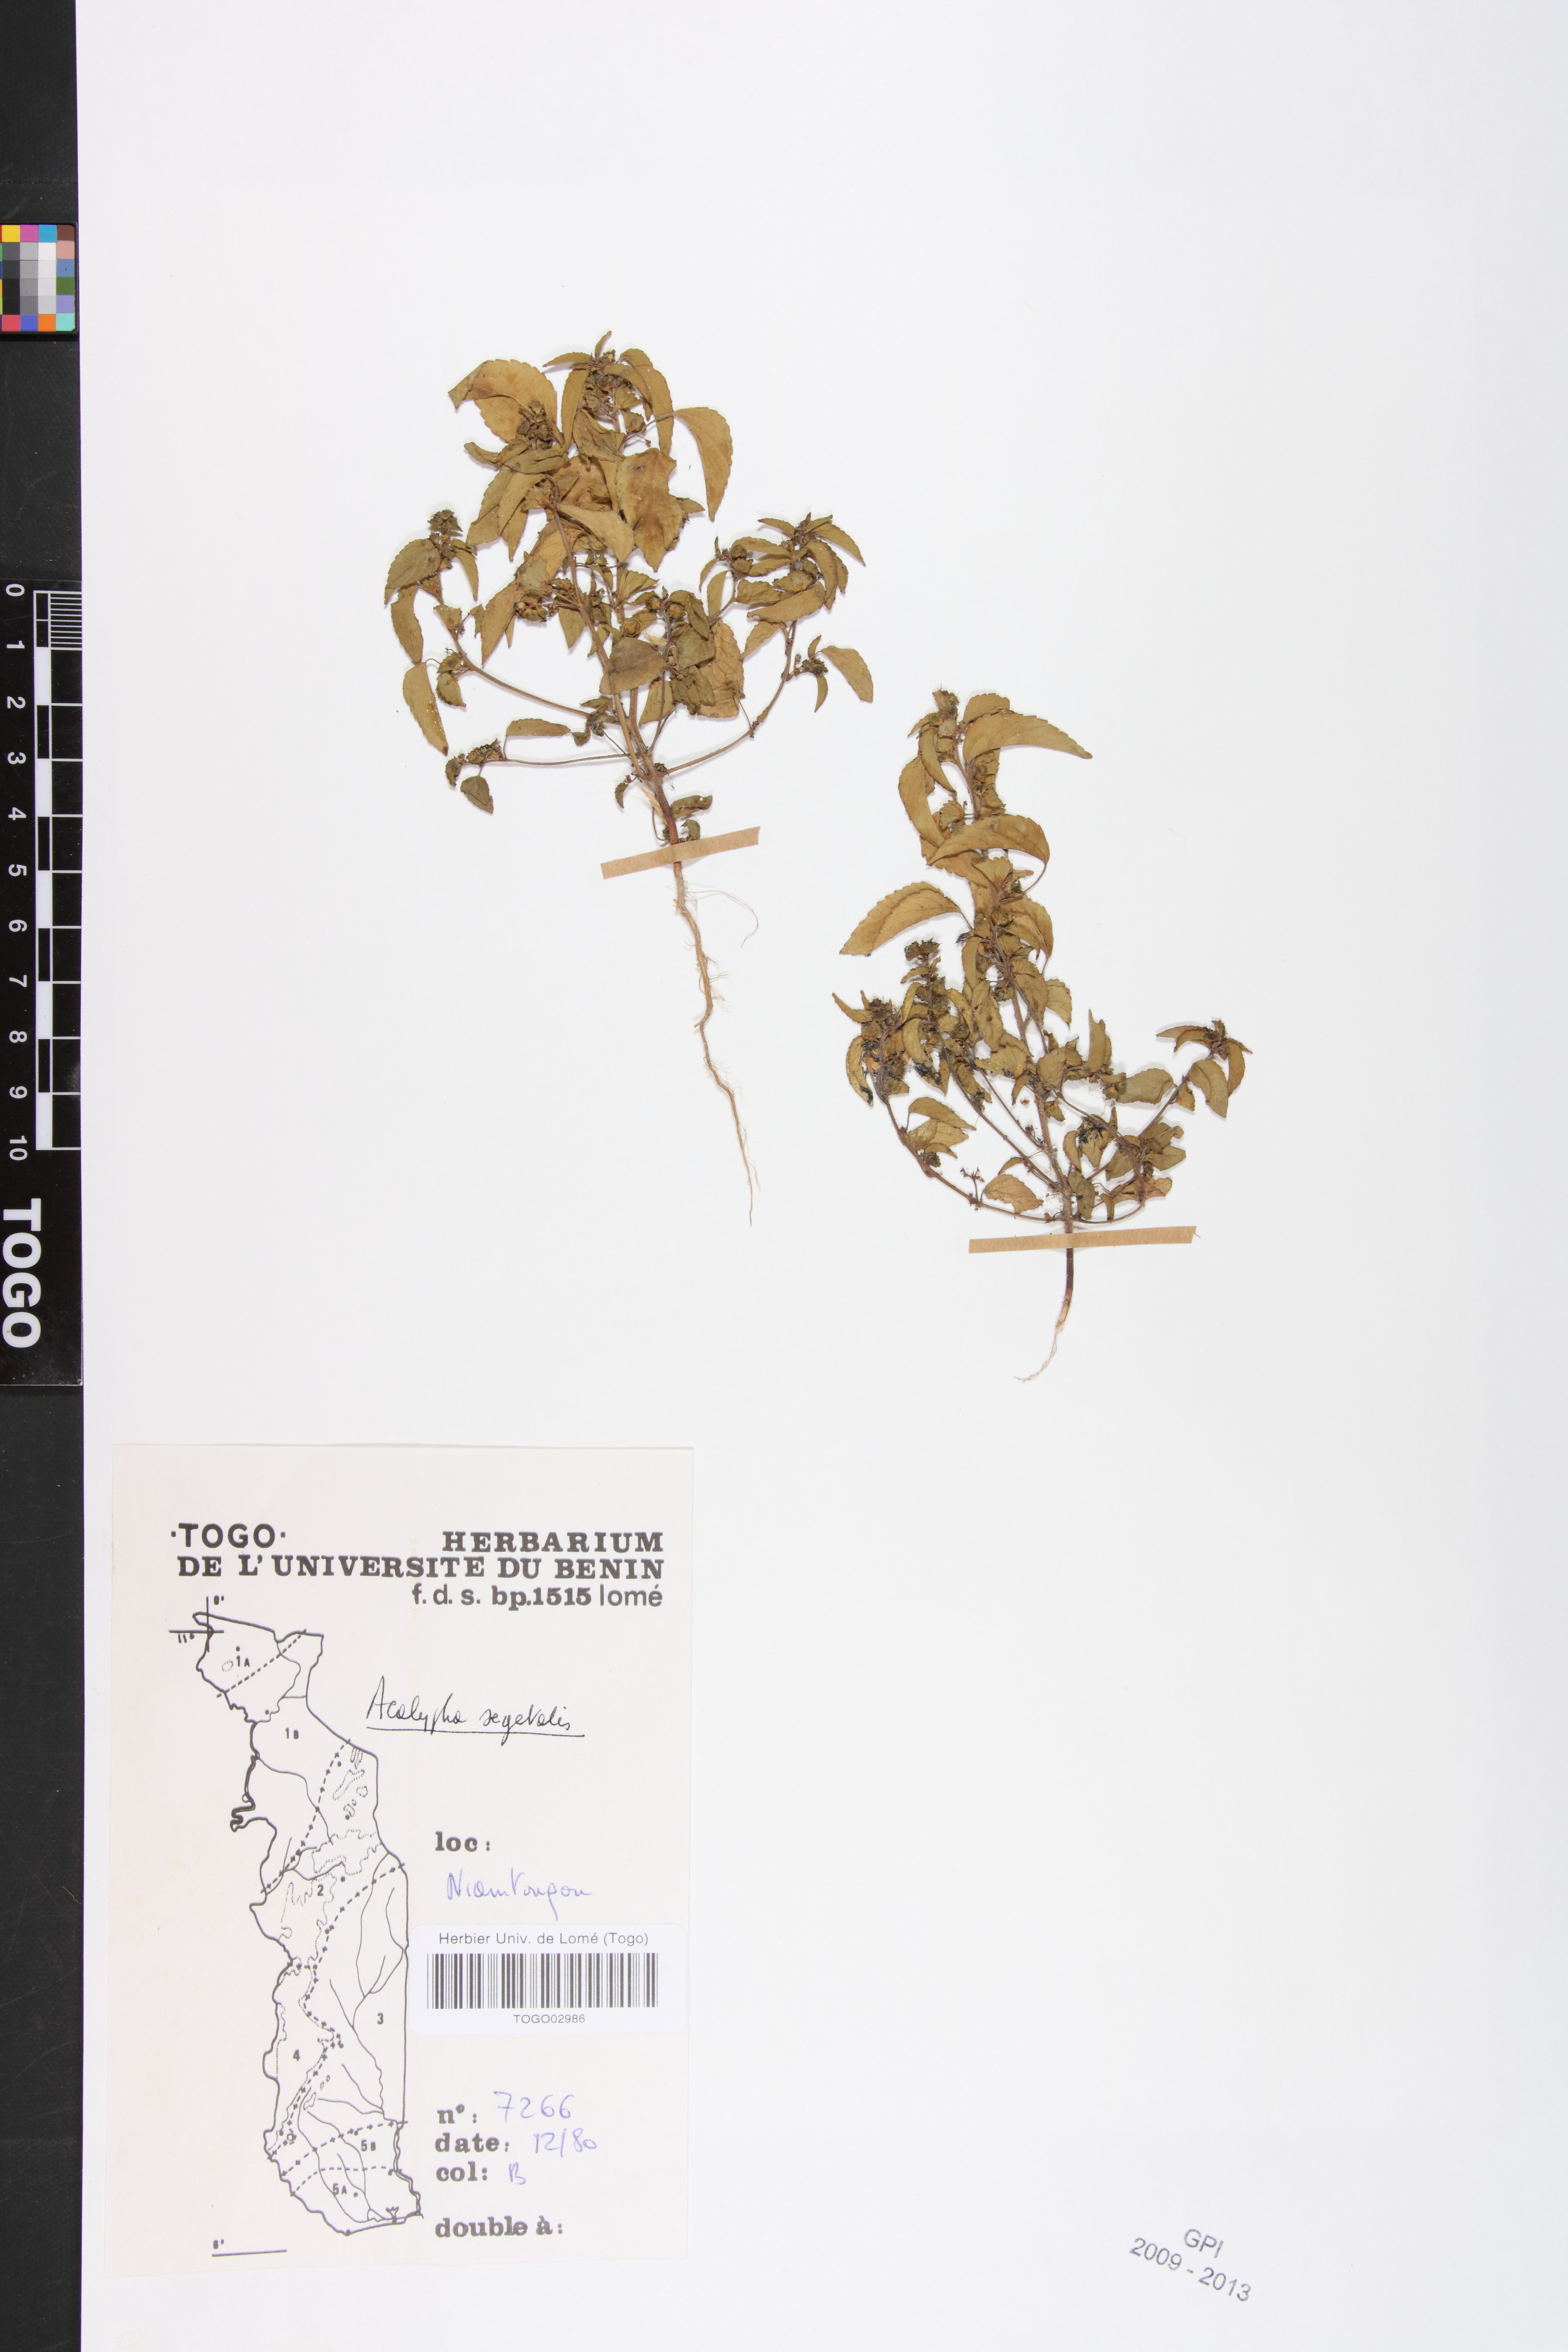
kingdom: Plantae
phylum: Tracheophyta
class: Magnoliopsida
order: Malpighiales
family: Euphorbiaceae
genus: Acalypha
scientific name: Acalypha segetalis
